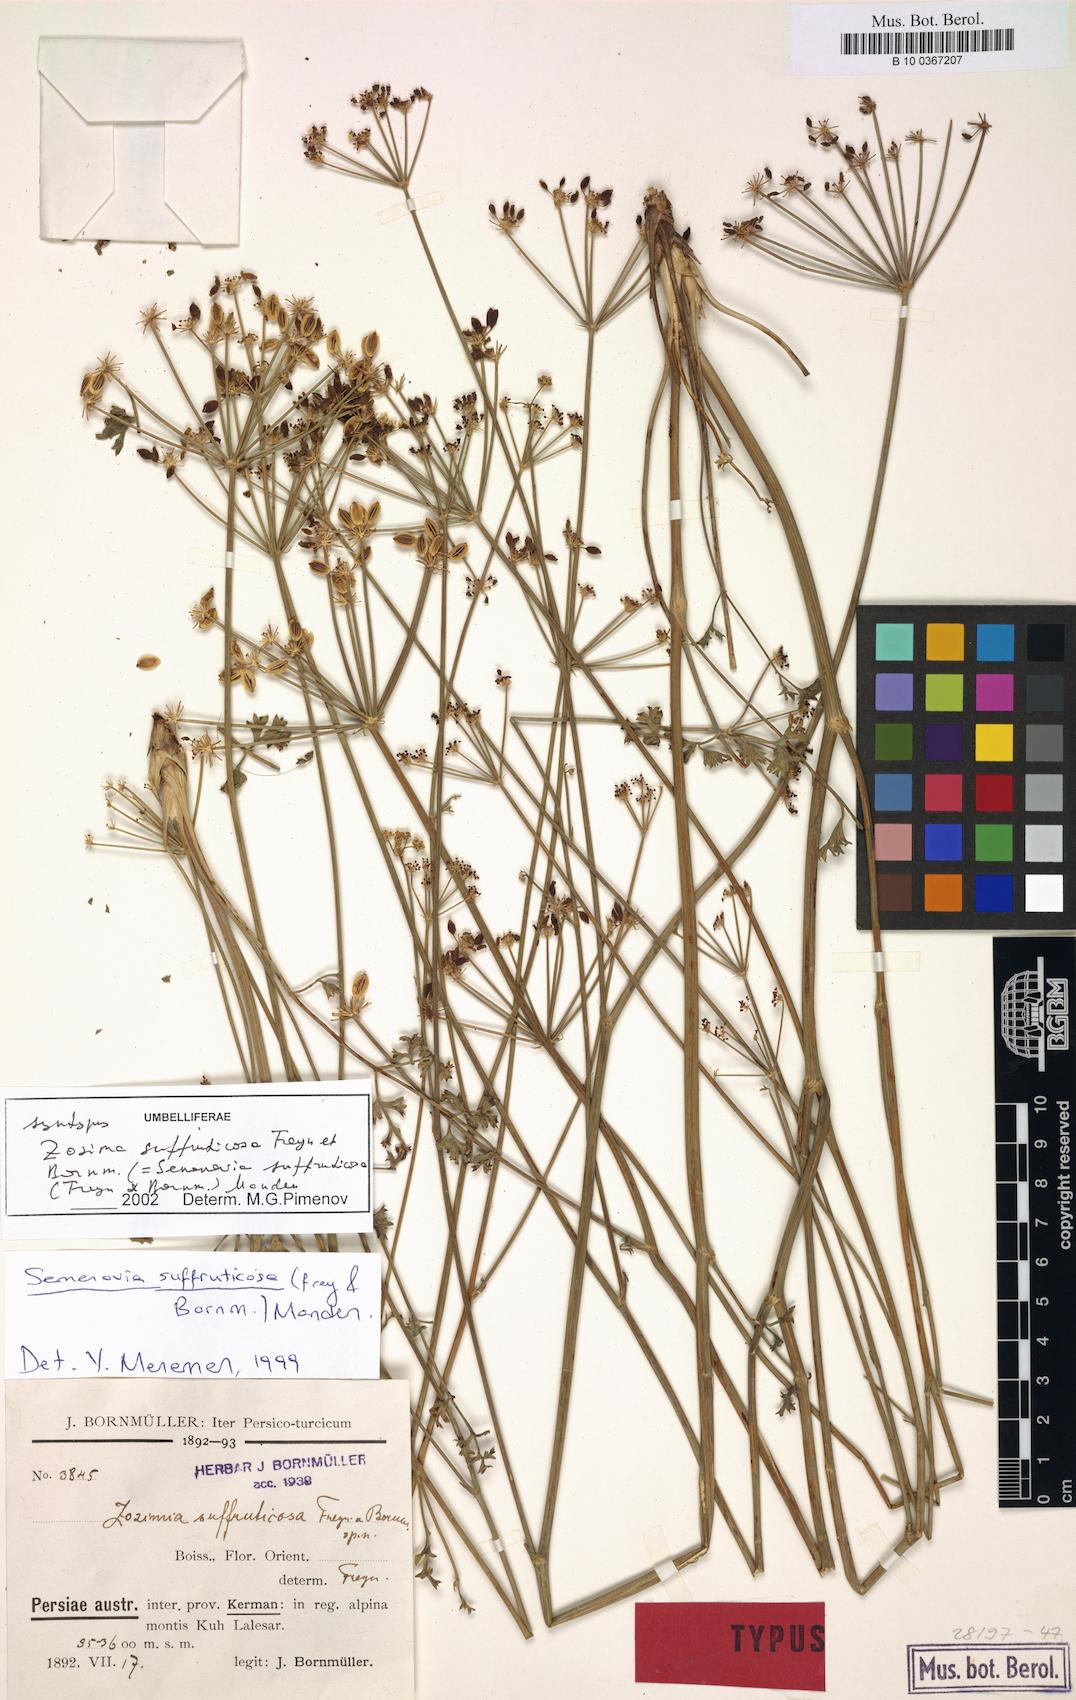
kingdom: Plantae
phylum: Tracheophyta
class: Magnoliopsida
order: Apiales
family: Apiaceae
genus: Semenovia
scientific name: Semenovia suffruticosa
